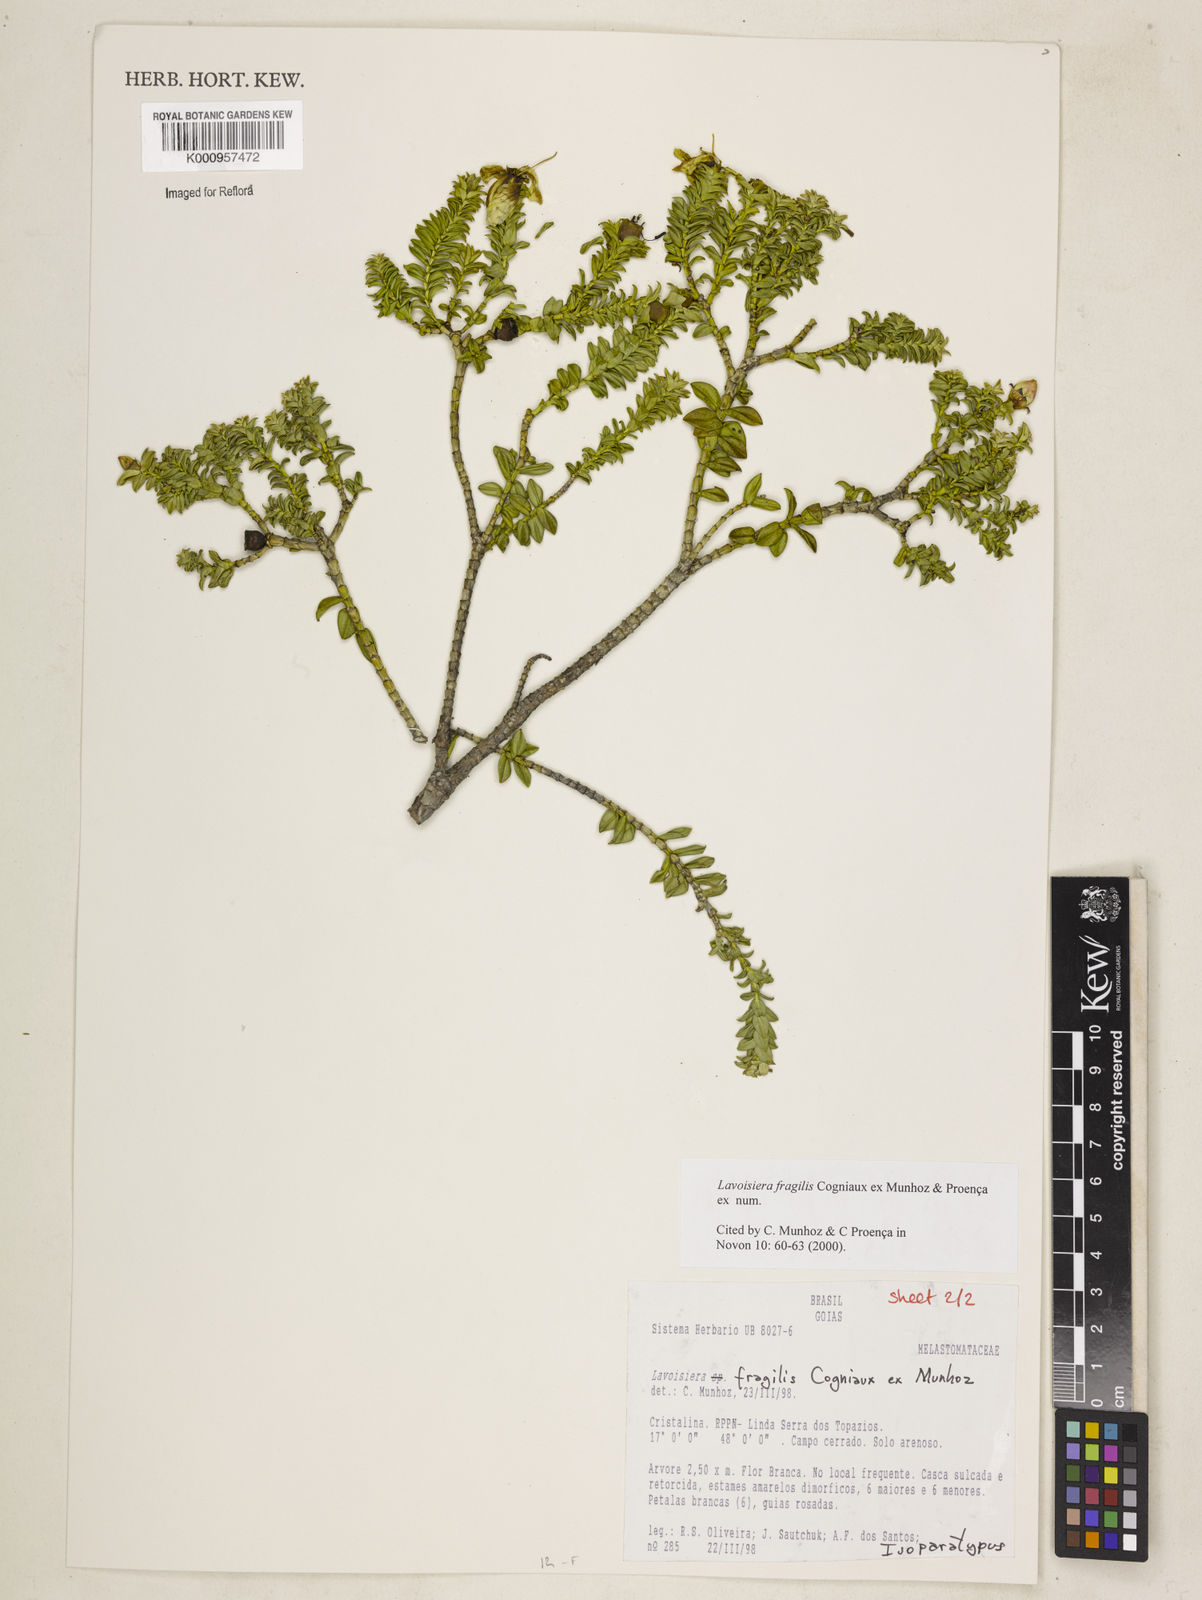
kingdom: Plantae
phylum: Tracheophyta
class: Magnoliopsida
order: Myrtales
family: Melastomataceae
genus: Microlicia
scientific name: Microlicia pohliana
